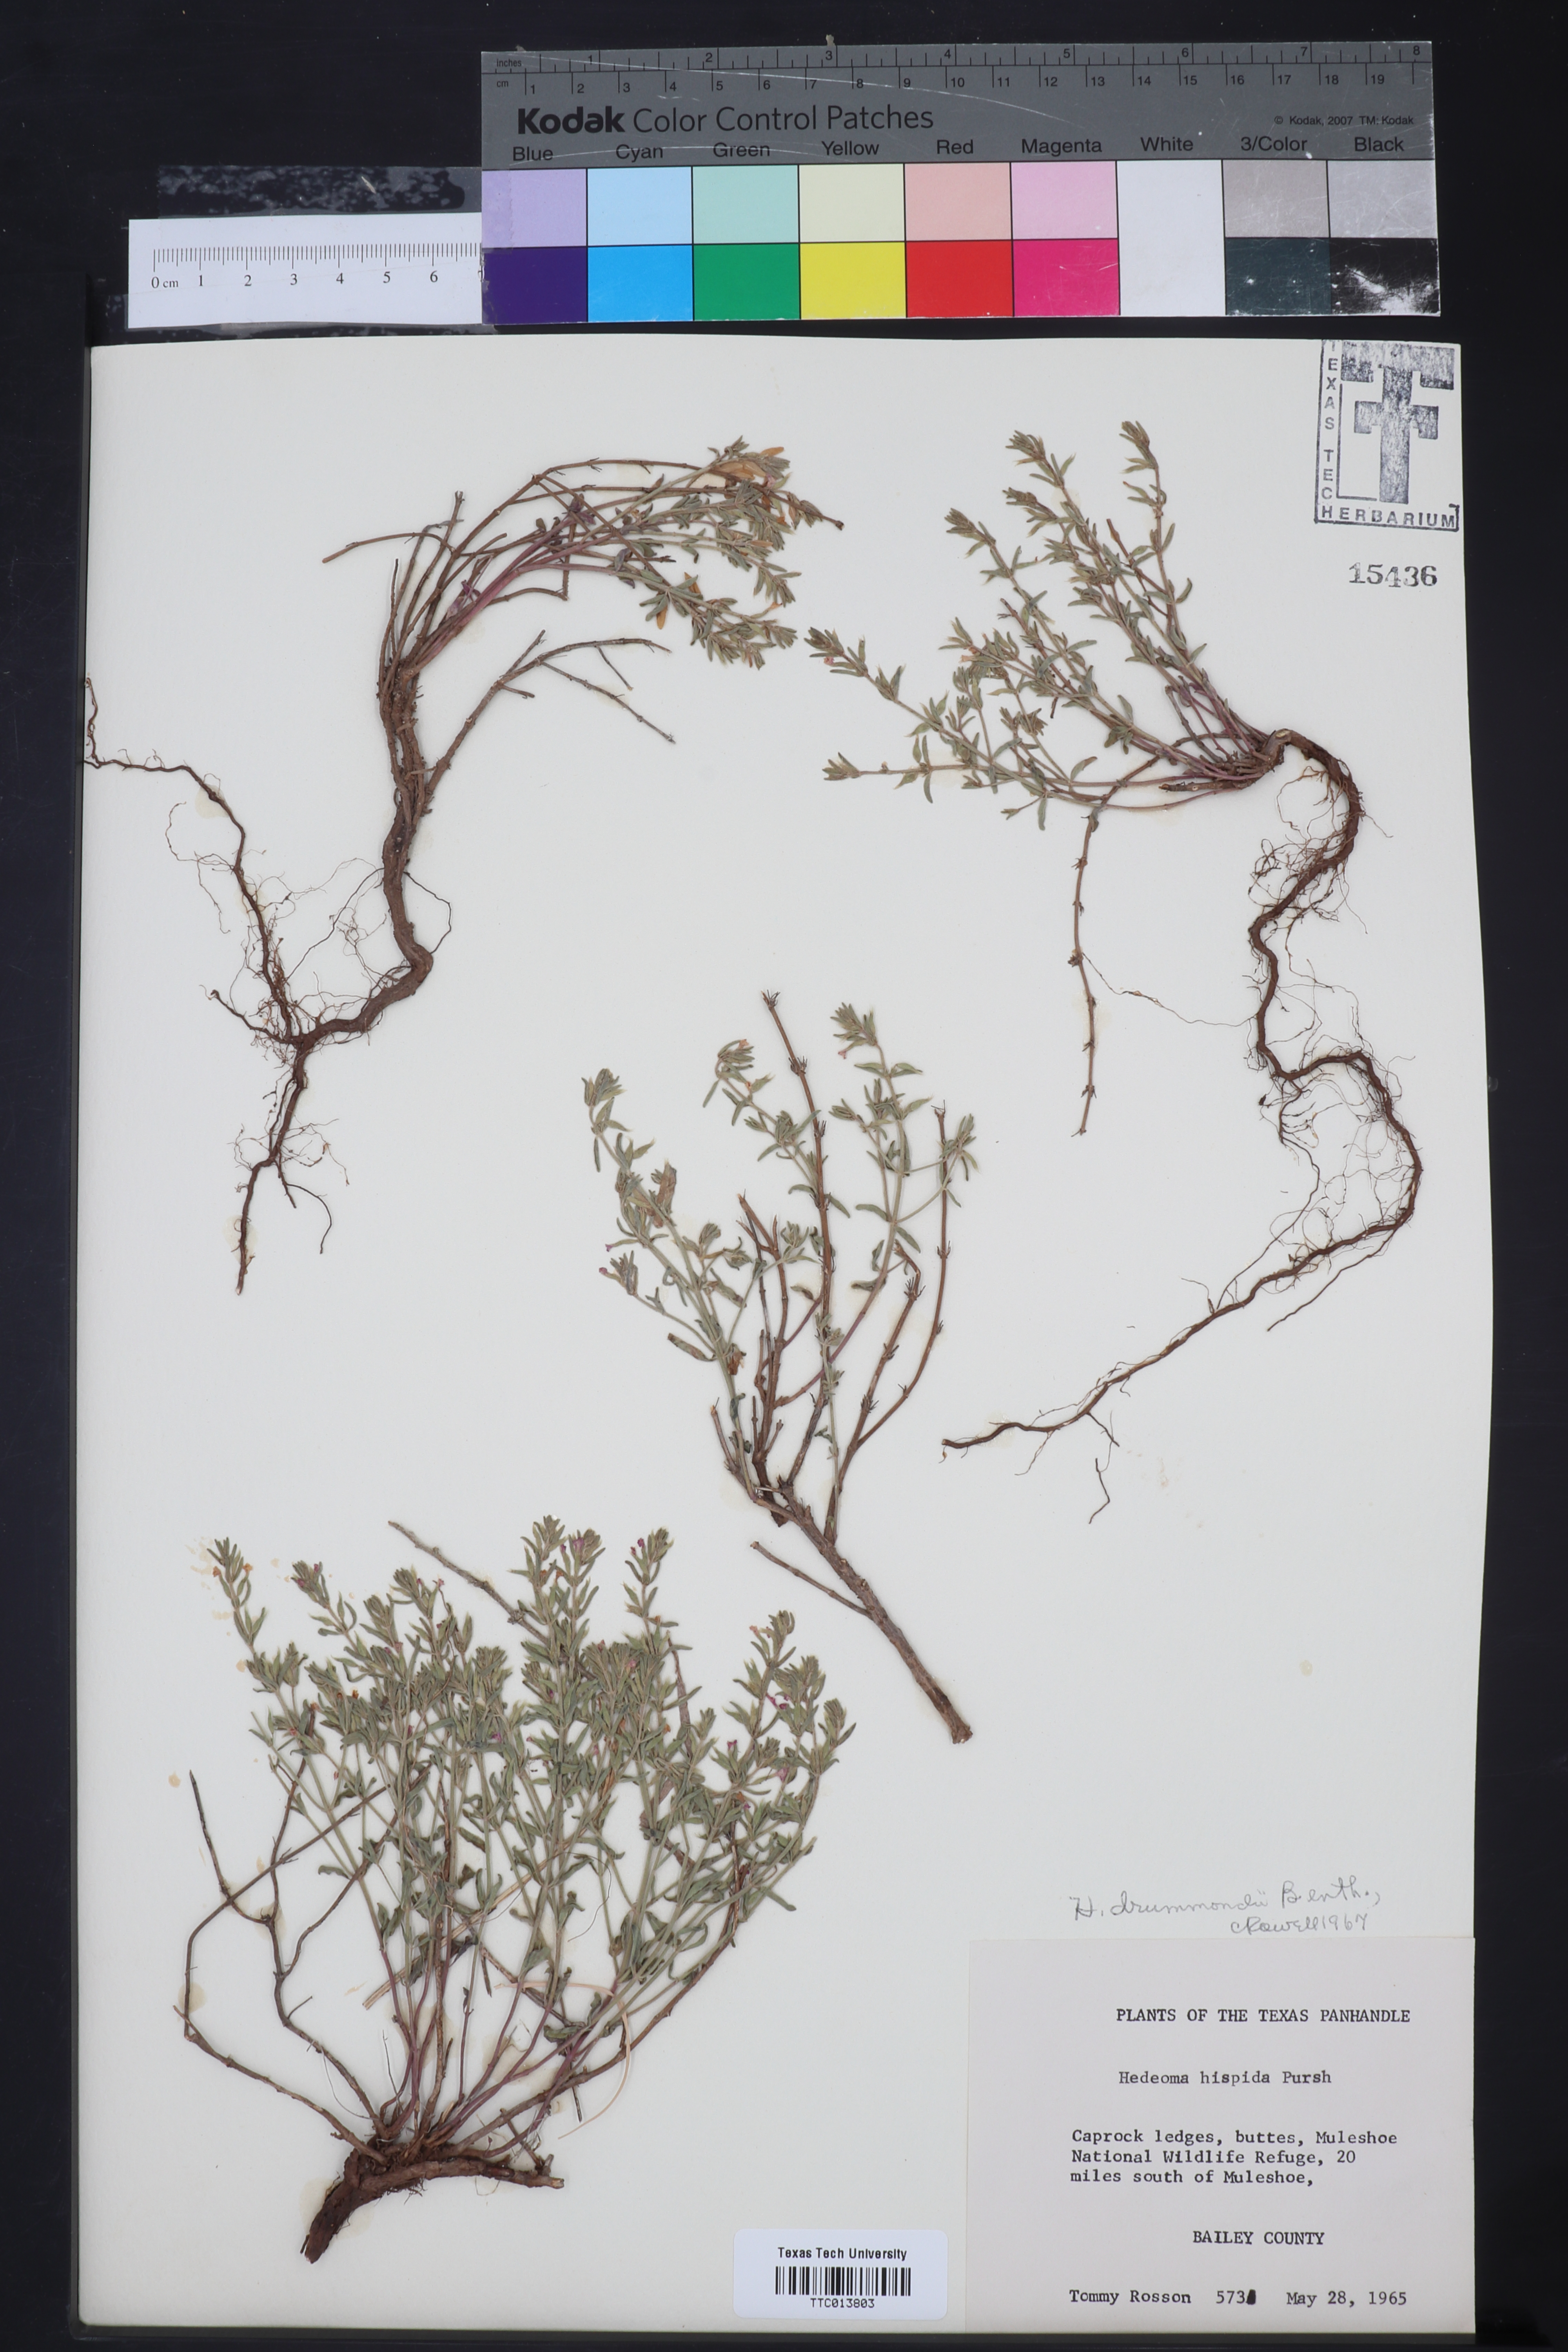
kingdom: Plantae
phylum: Tracheophyta
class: Magnoliopsida
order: Lamiales
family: Lamiaceae
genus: Hedeoma
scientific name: Hedeoma drummondii
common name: New mexico pennyroyal
